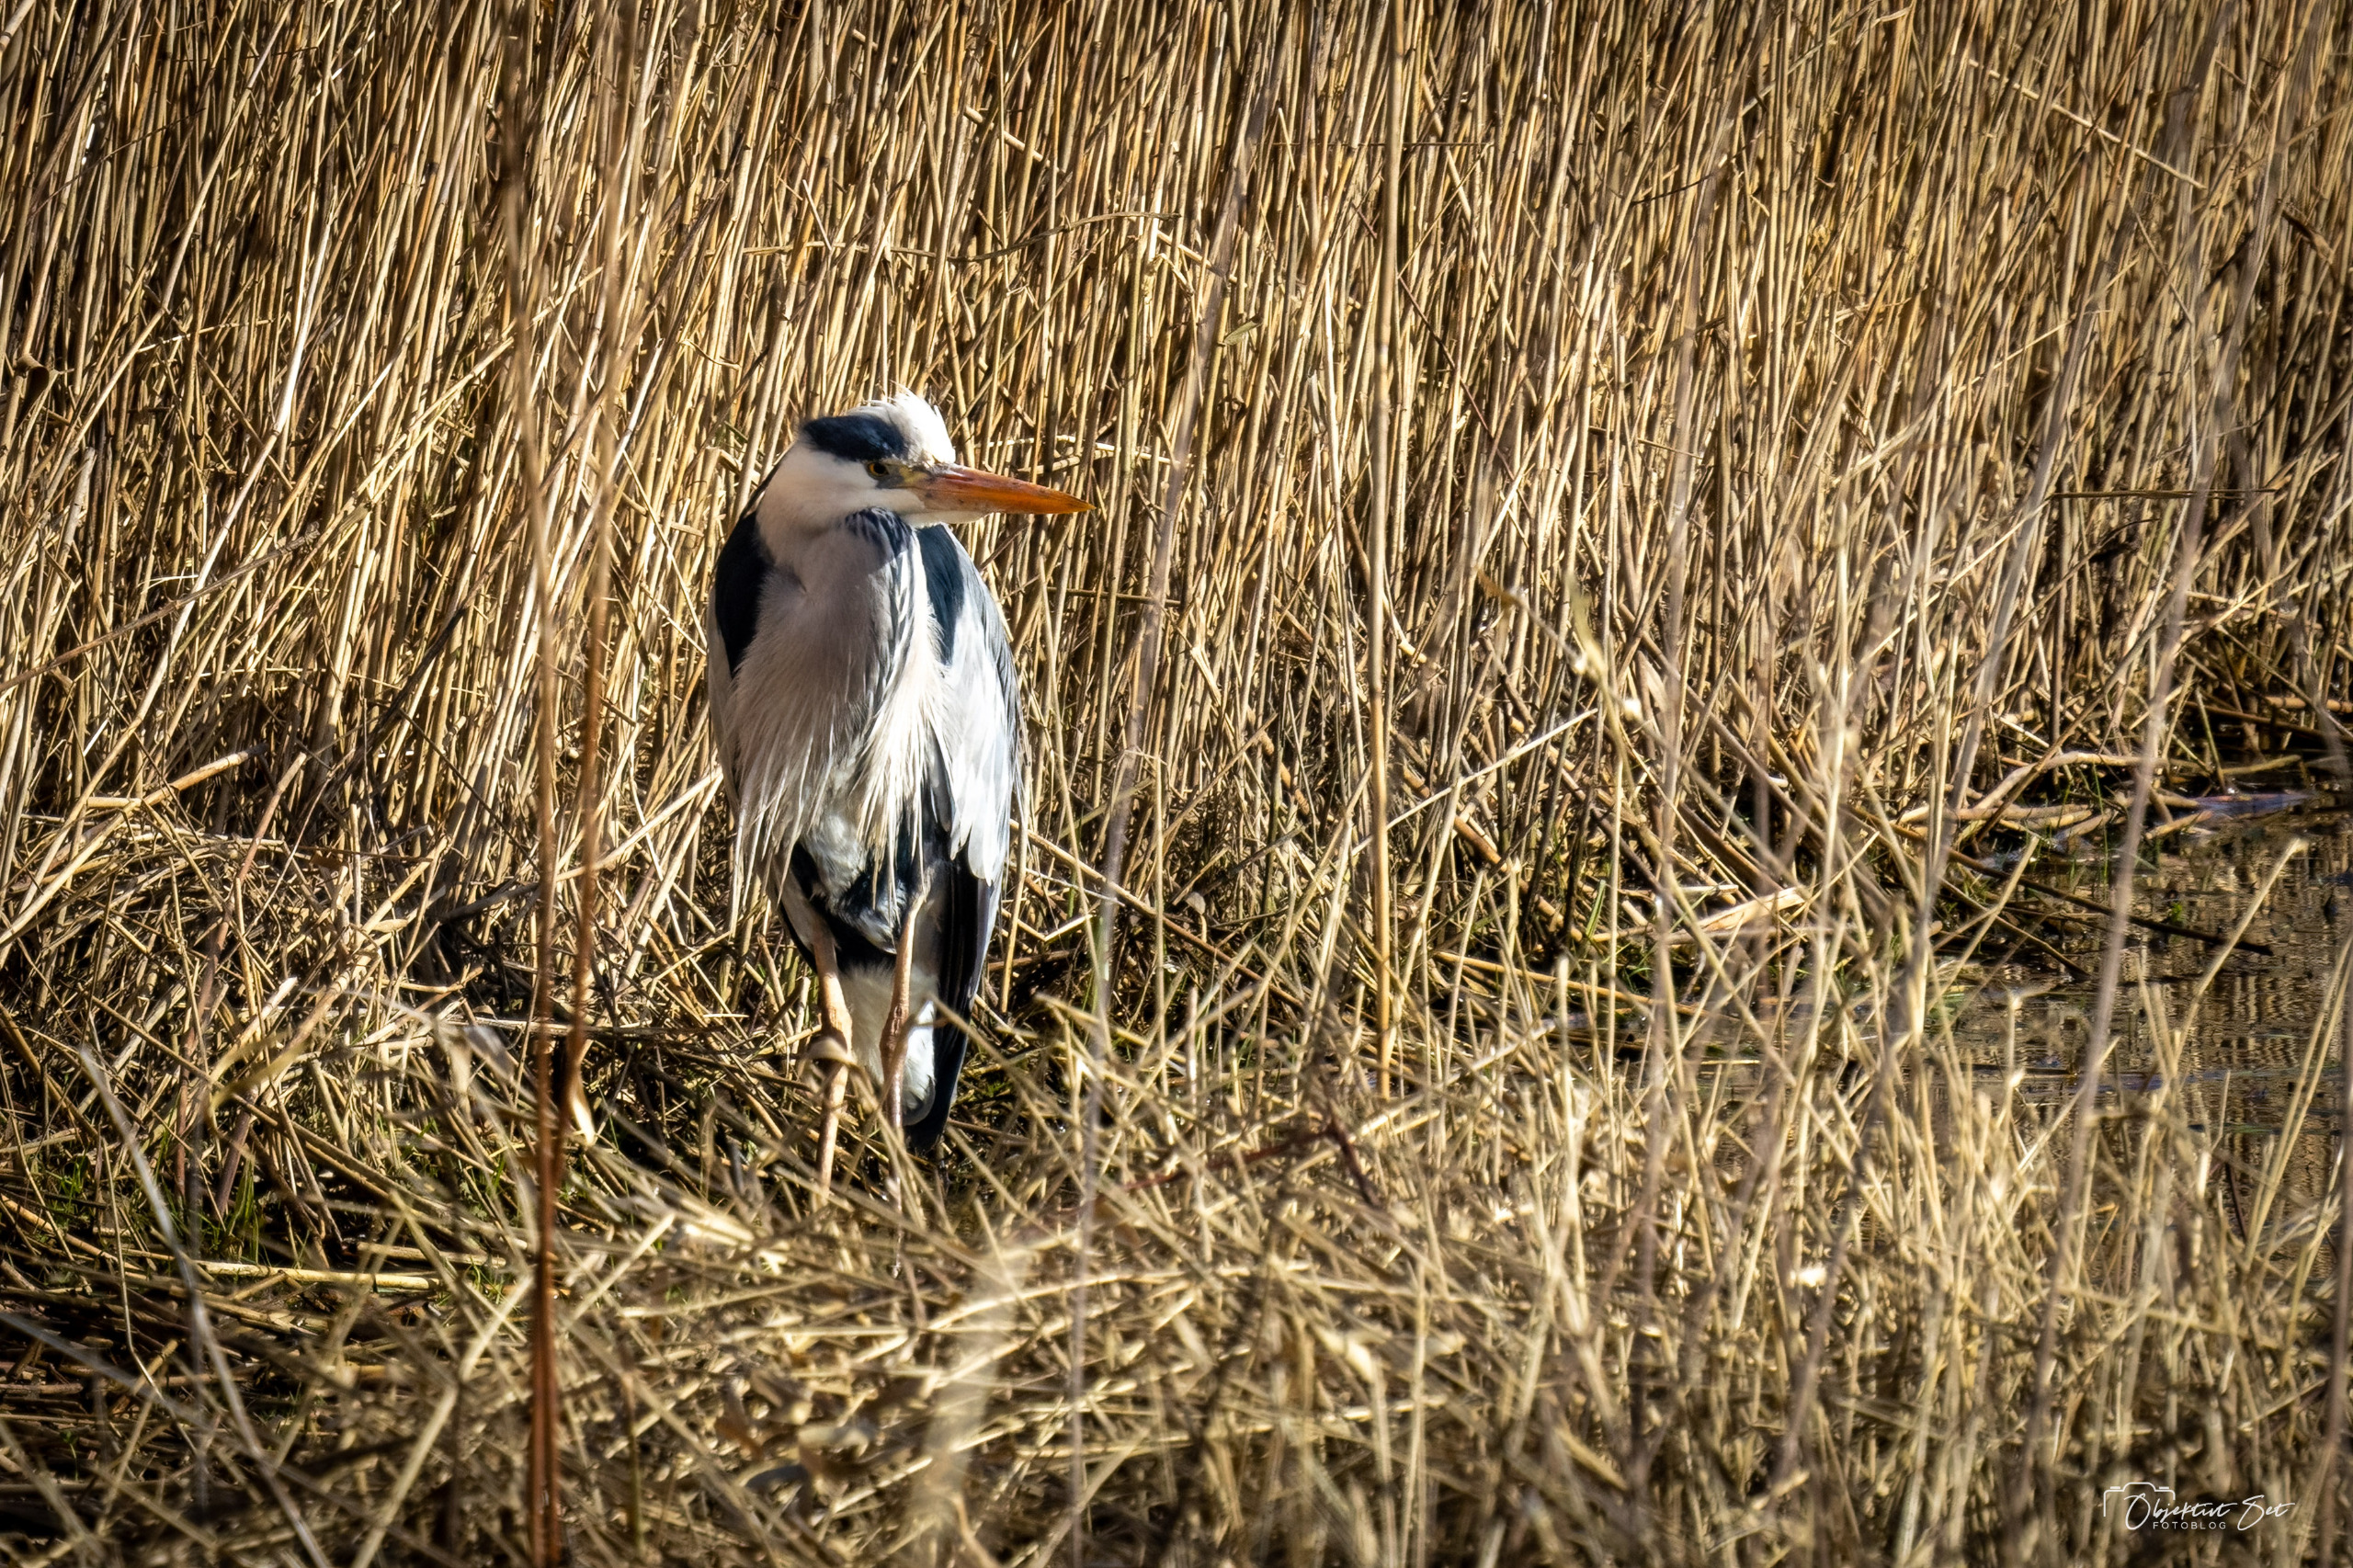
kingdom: Animalia
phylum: Chordata
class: Aves
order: Pelecaniformes
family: Ardeidae
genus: Ardea
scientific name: Ardea cinerea
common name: Fiskehejre
